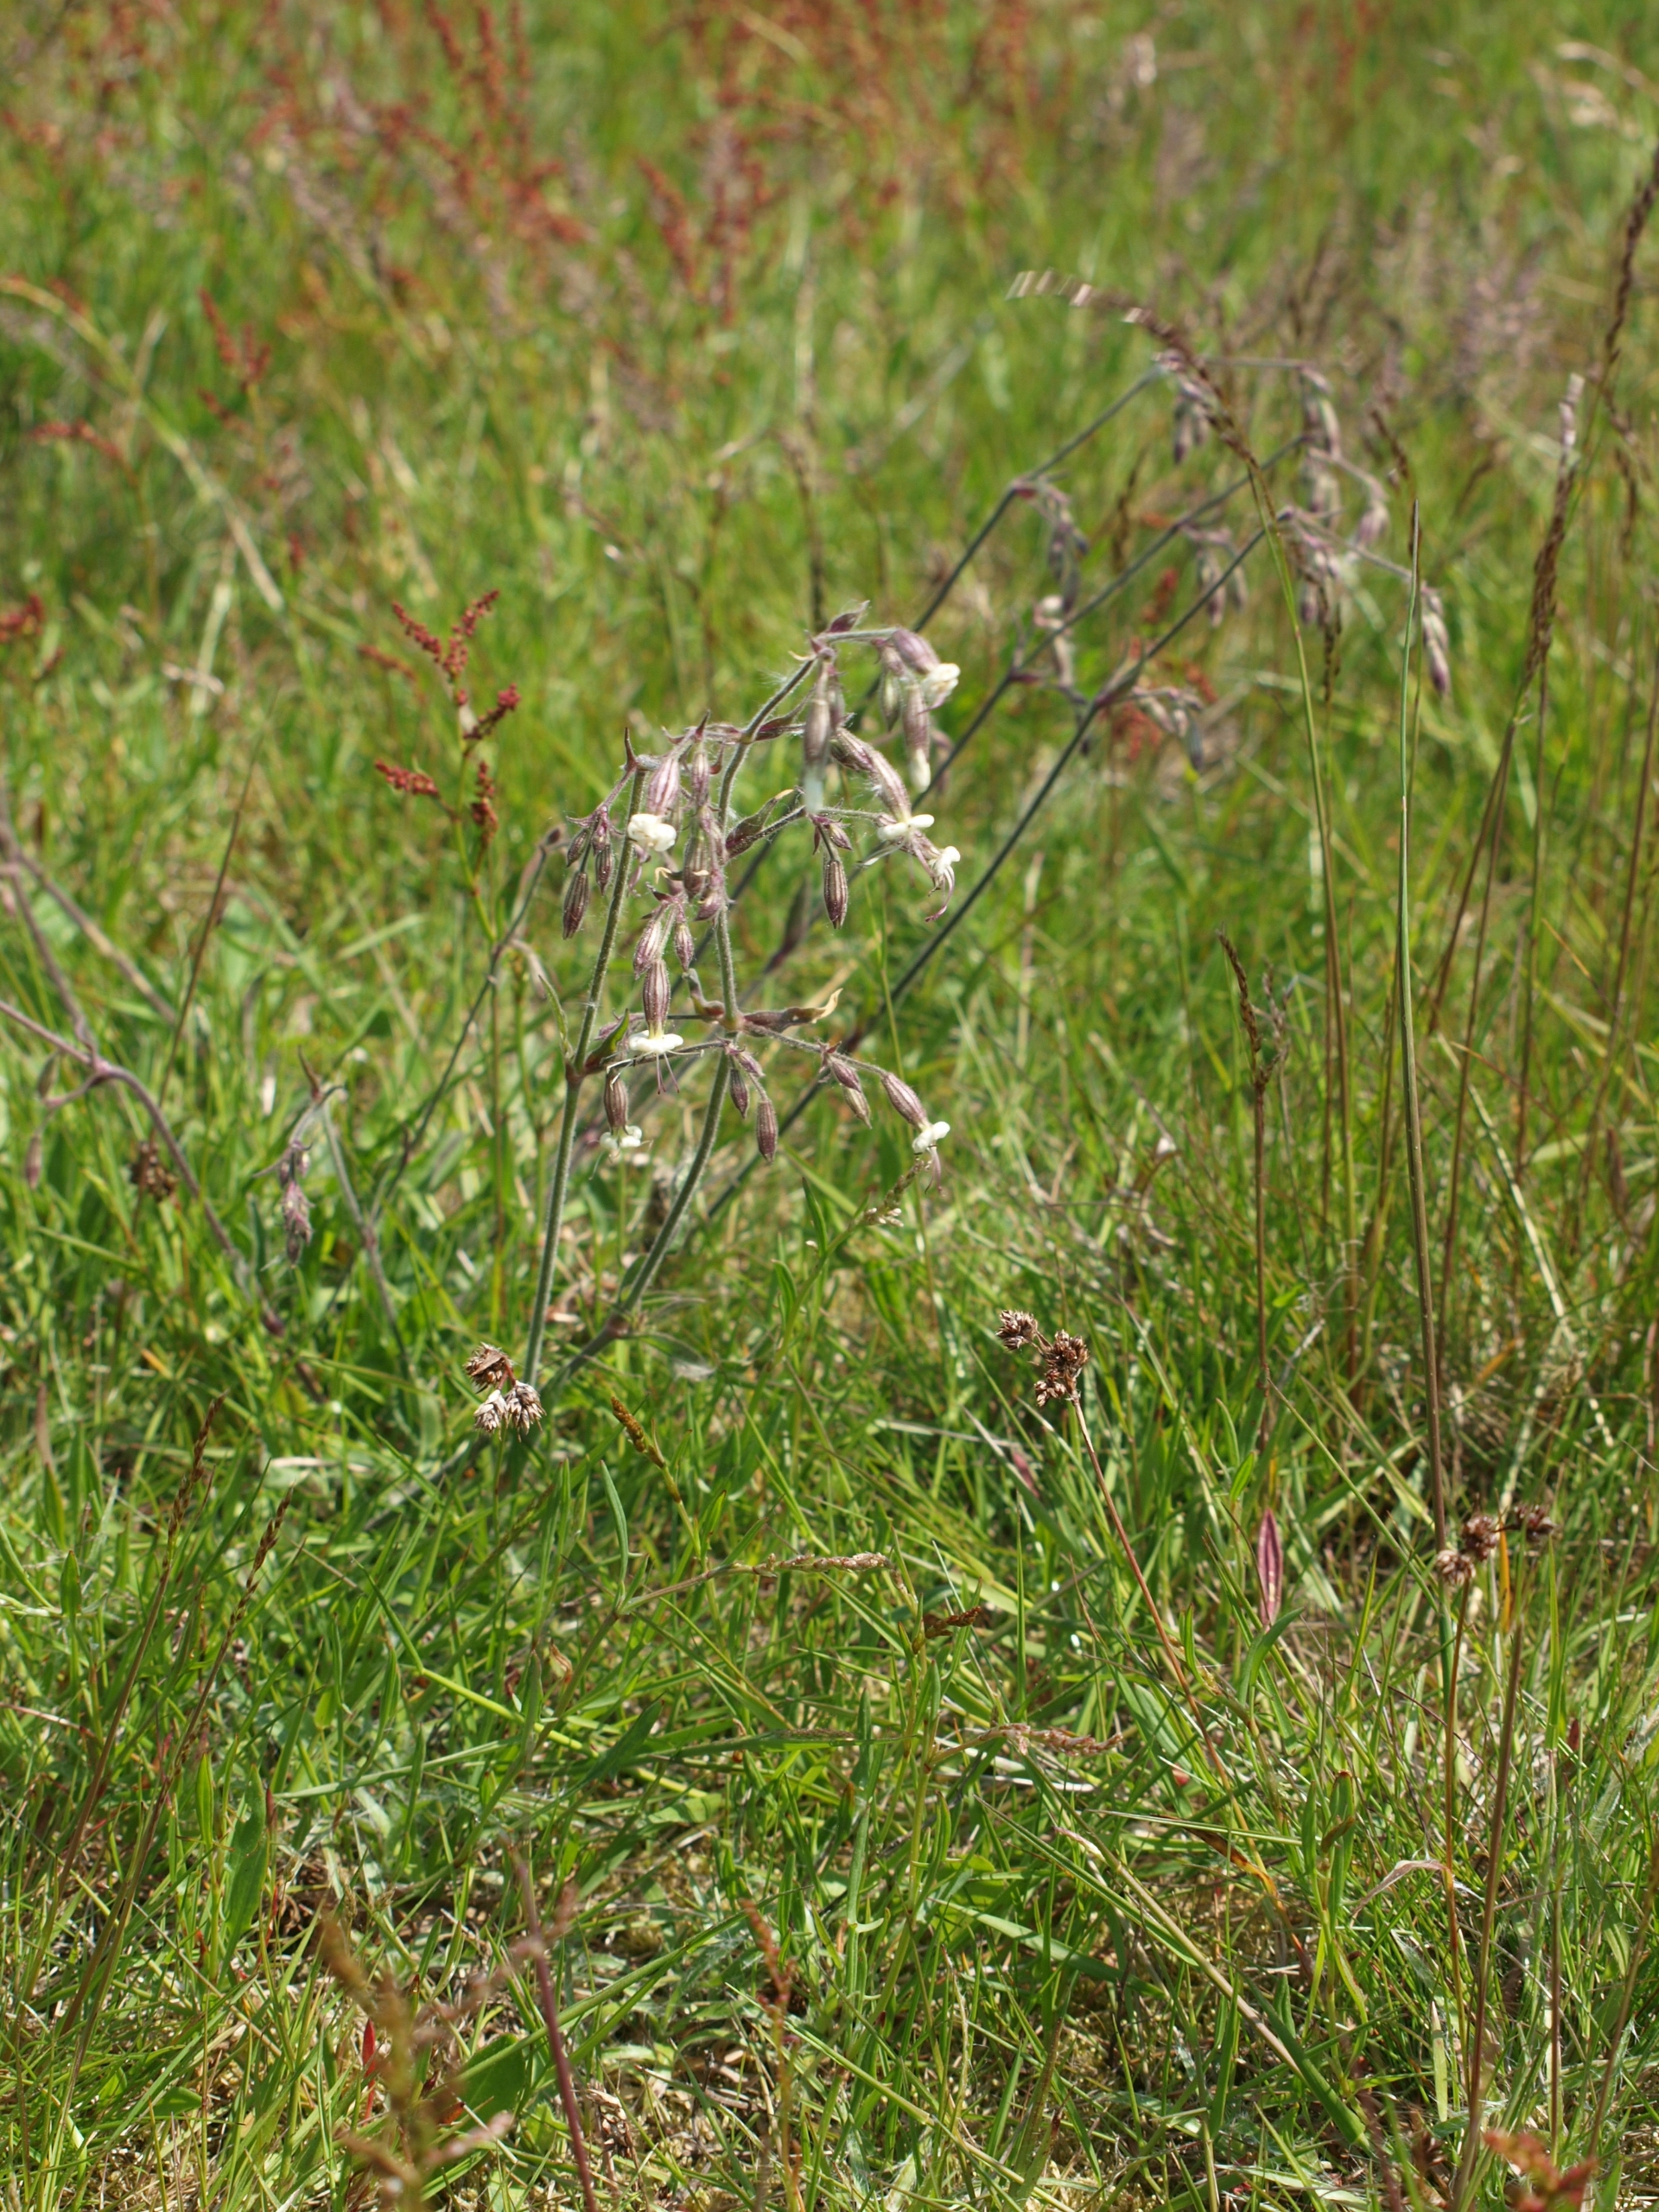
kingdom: Plantae
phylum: Tracheophyta
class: Magnoliopsida
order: Caryophyllales
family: Caryophyllaceae
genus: Silene
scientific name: Silene nutans
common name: Nikkende limurt
